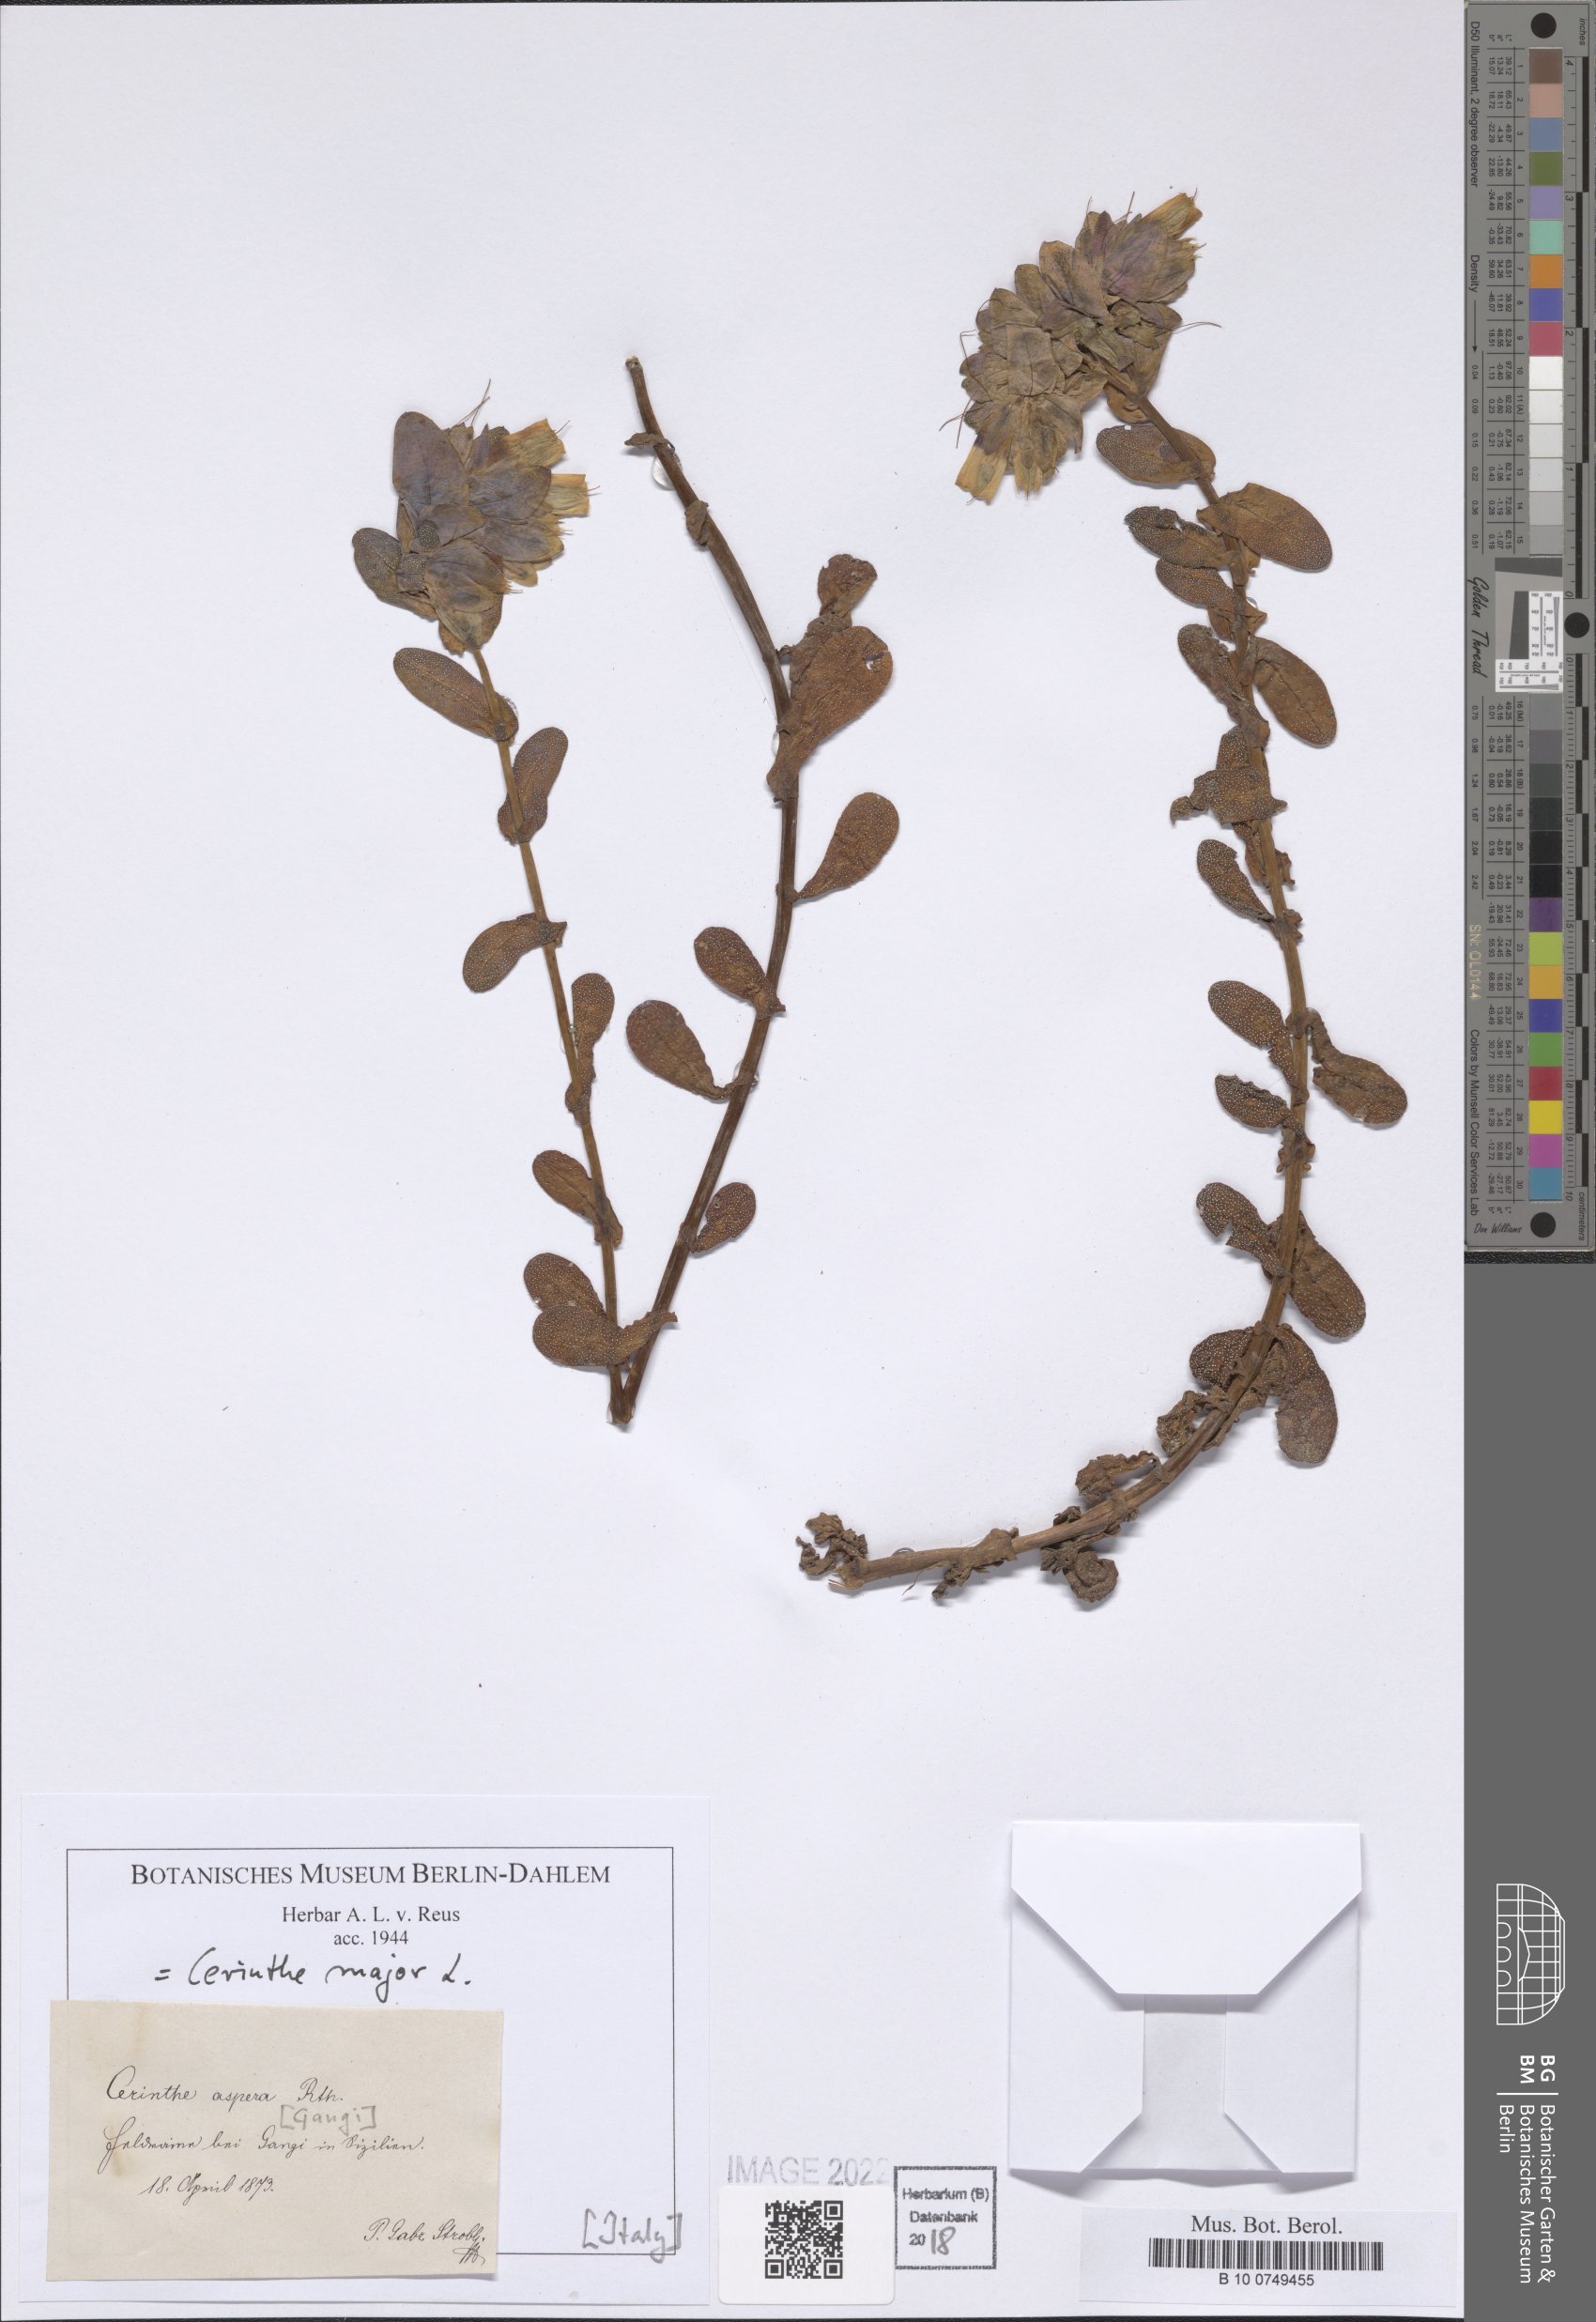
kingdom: Plantae
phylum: Tracheophyta
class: Magnoliopsida
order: Boraginales
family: Boraginaceae
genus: Cerinthe
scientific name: Cerinthe major
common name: Greater honeywort
